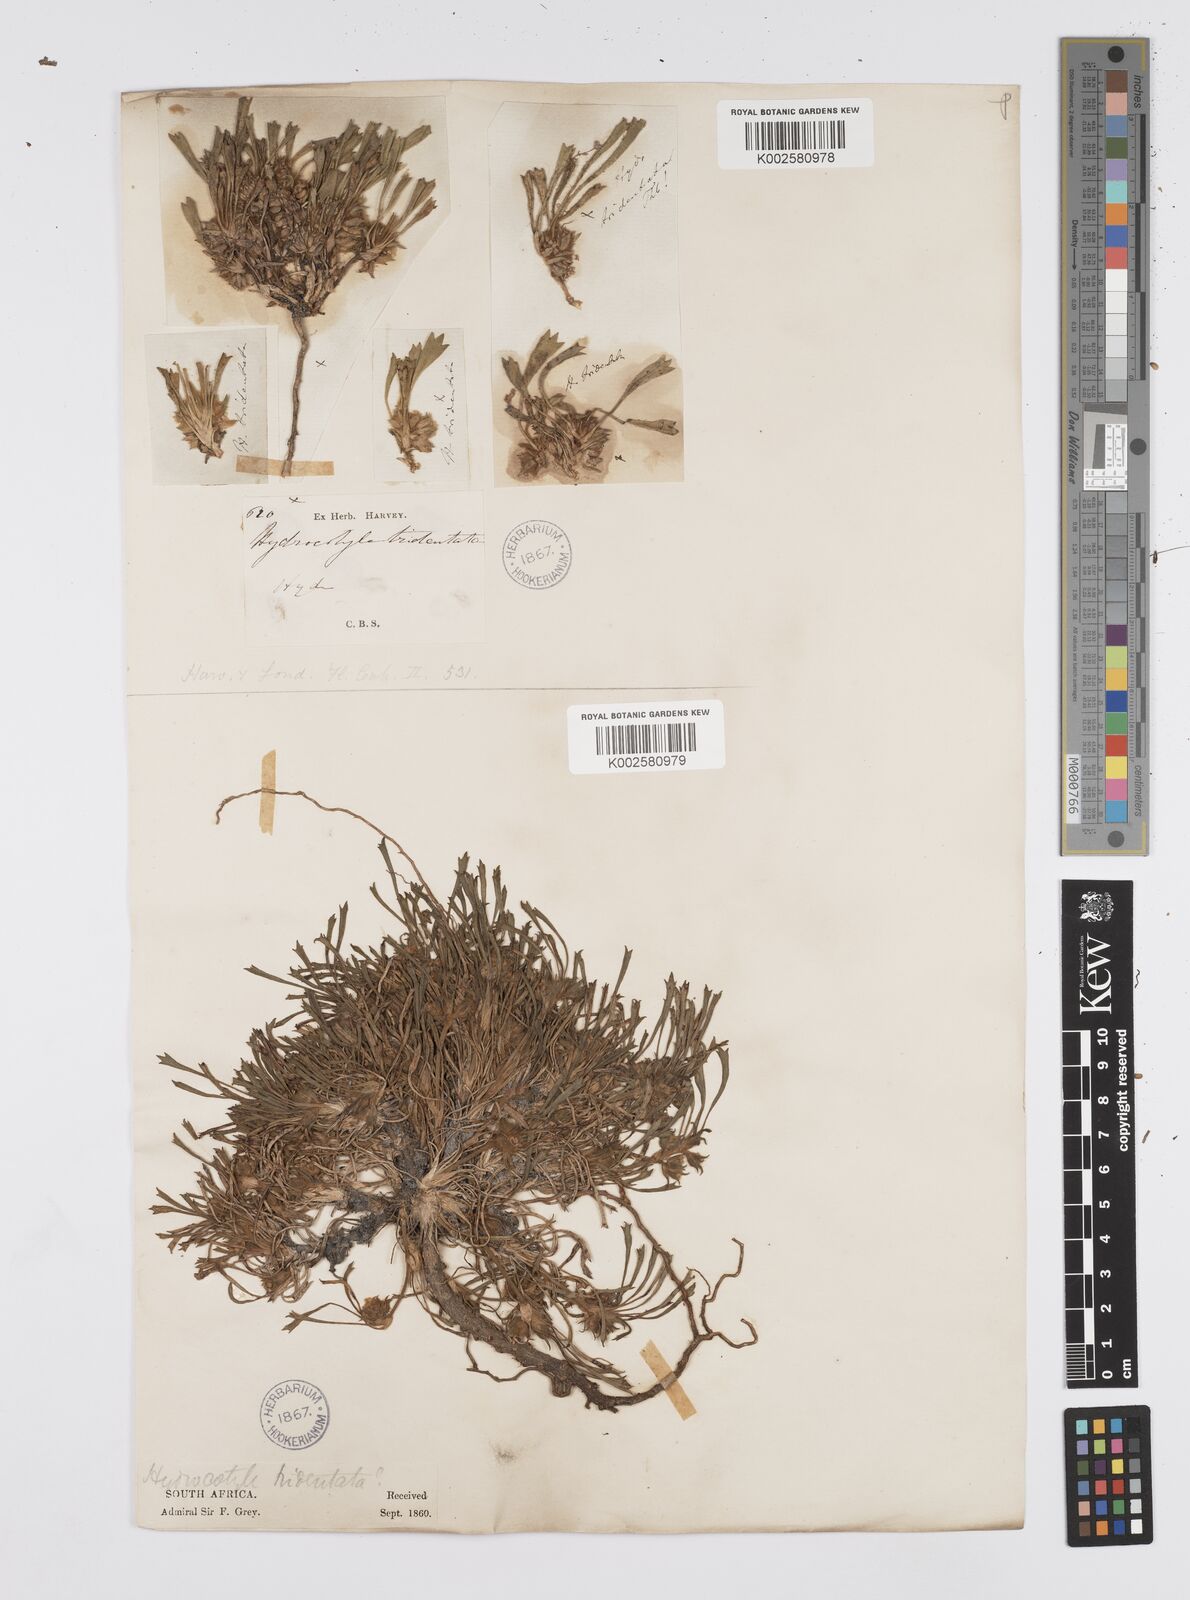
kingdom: Plantae
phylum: Tracheophyta
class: Magnoliopsida
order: Apiales
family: Apiaceae
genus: Centella
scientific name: Centella tridentata
